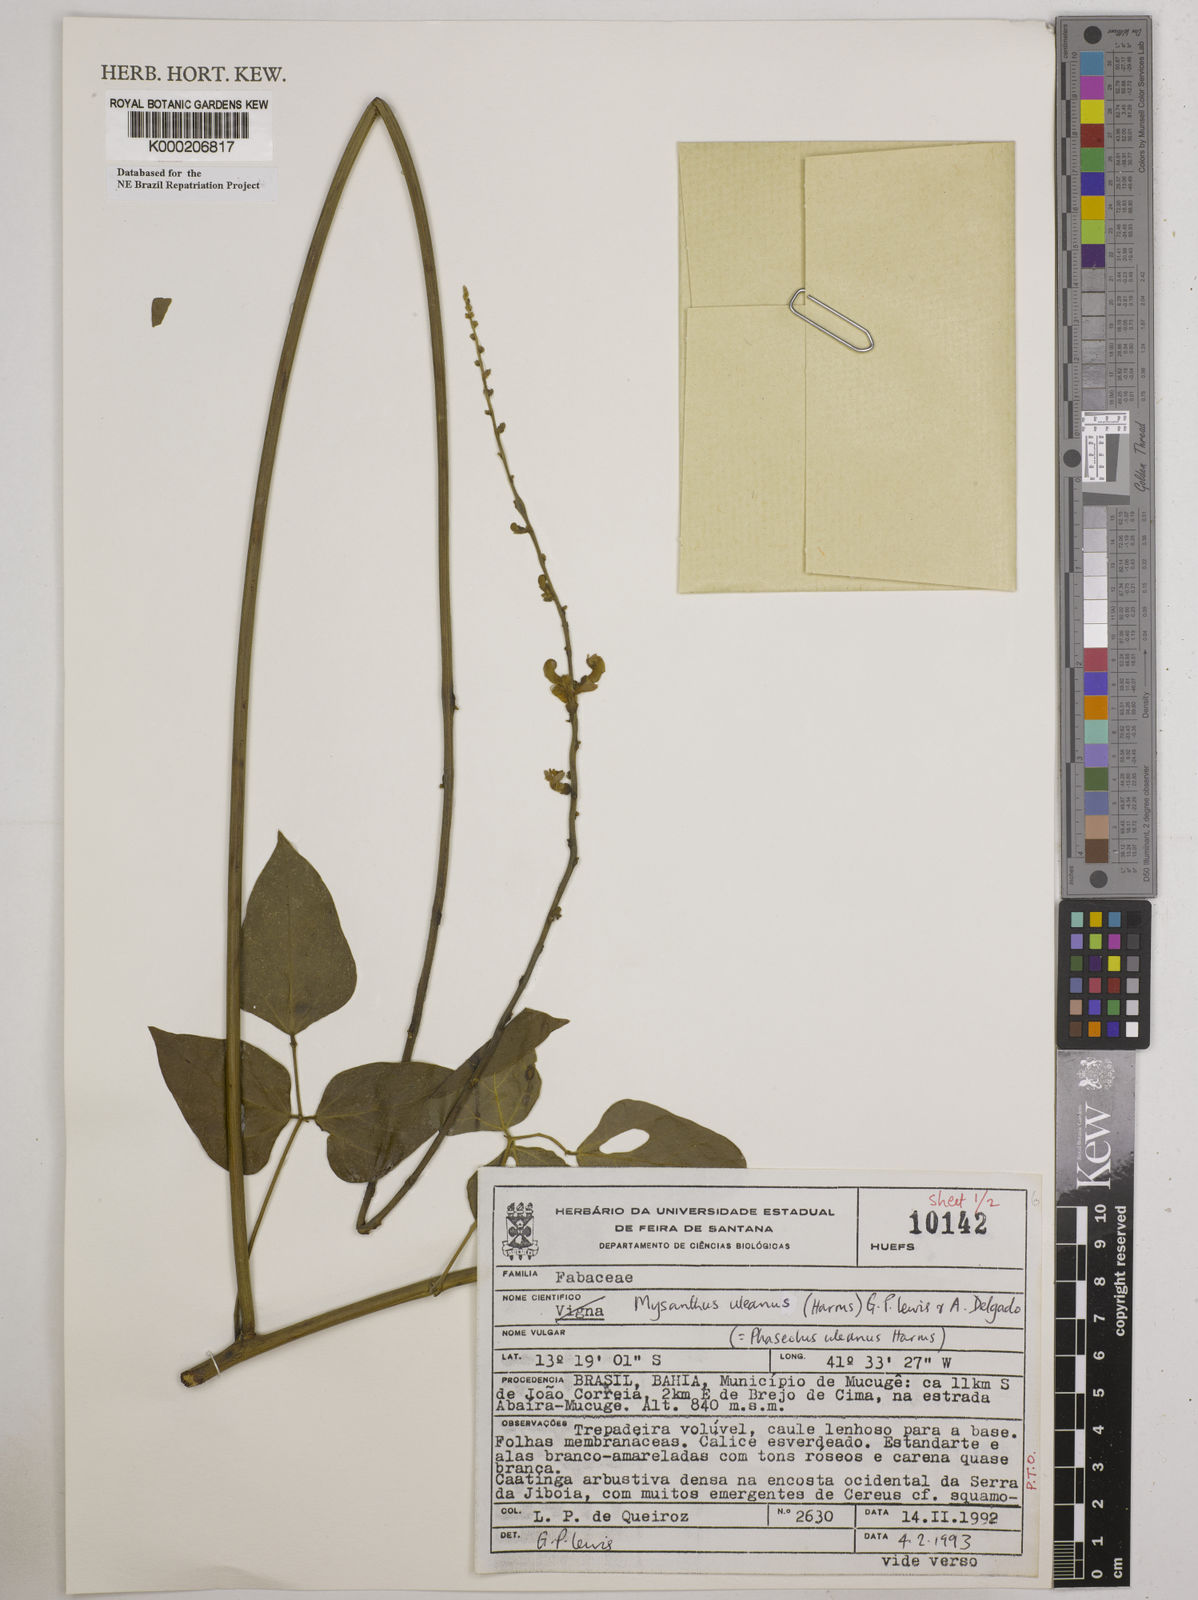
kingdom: Plantae
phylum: Tracheophyta
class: Magnoliopsida
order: Fabales
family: Fabaceae
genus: Mysanthus
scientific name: Mysanthus uleanus
